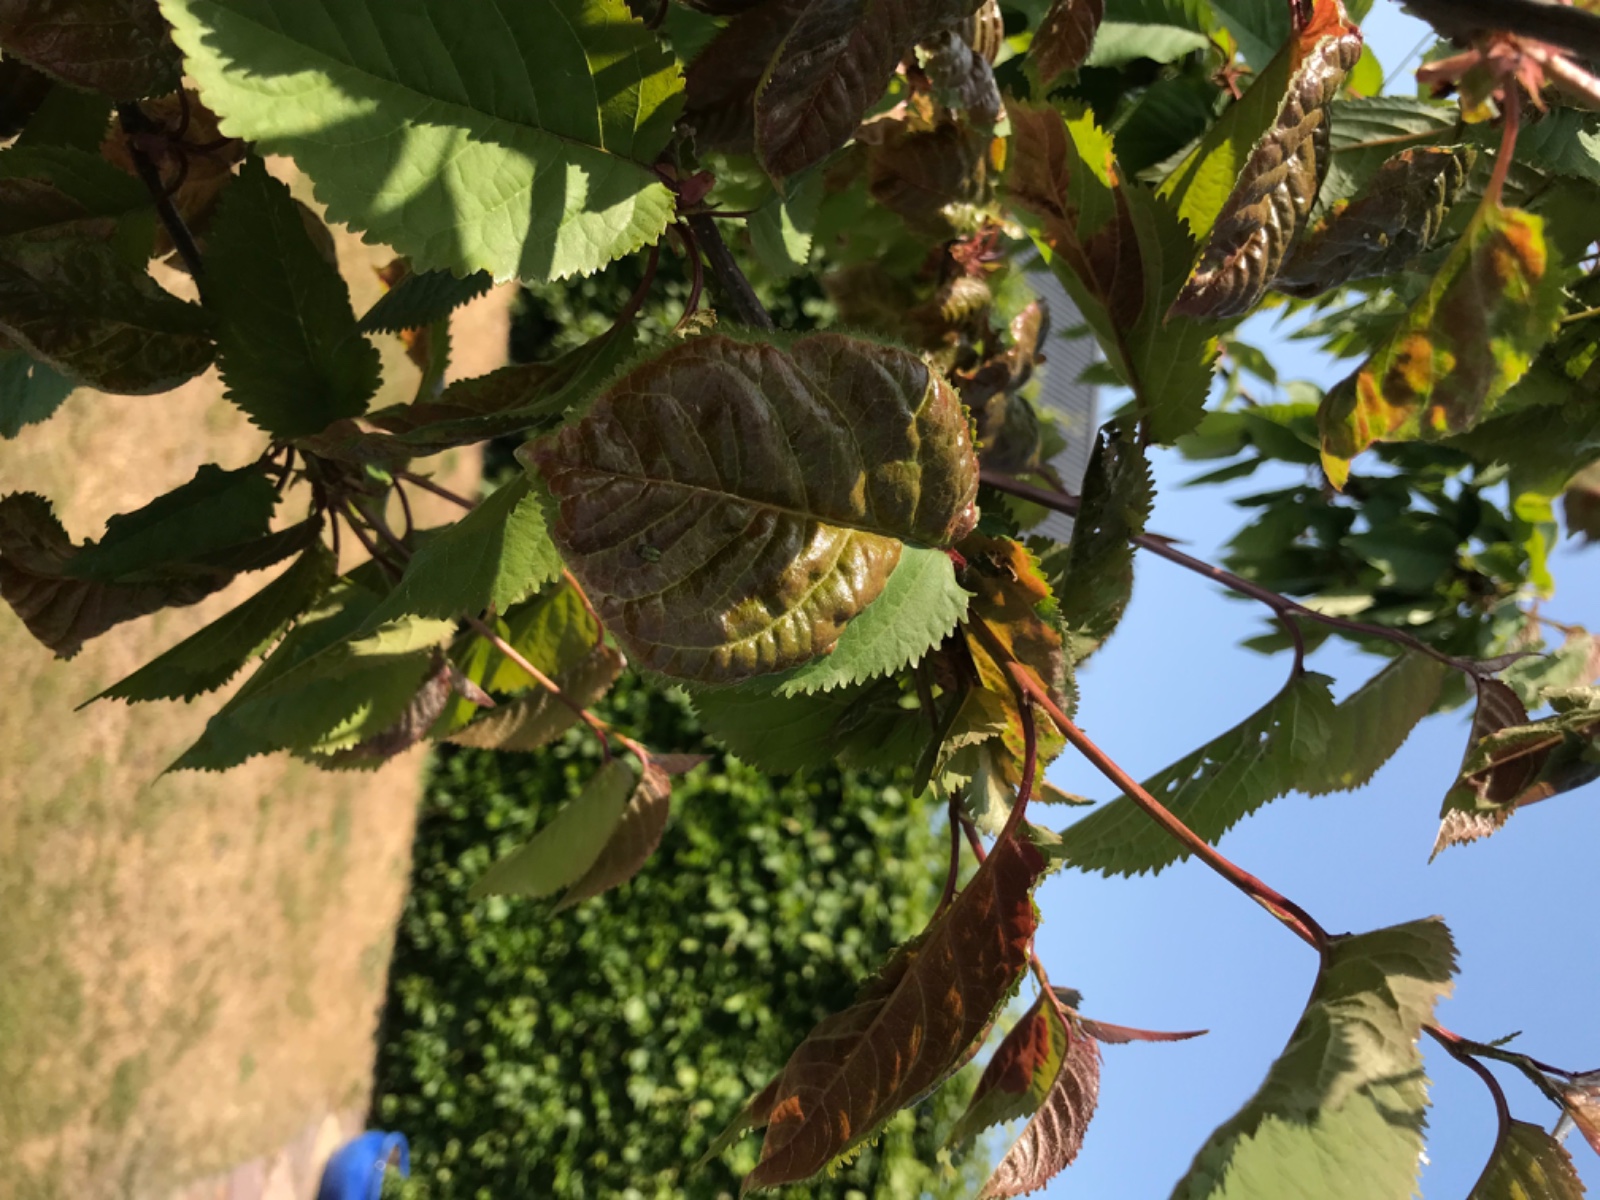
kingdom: Fungi
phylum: Ascomycota
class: Taphrinomycetes
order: Taphrinales
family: Taphrinaceae
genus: Taphrina
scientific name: Taphrina wiesneri
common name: Cherry leaf curl
